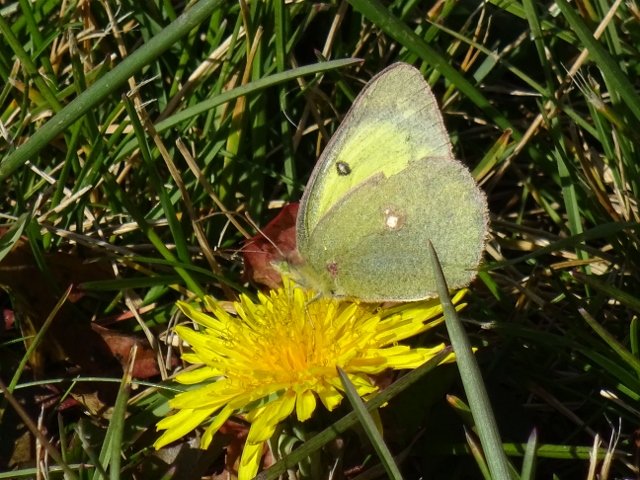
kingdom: Animalia
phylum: Arthropoda
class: Insecta
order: Lepidoptera
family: Pieridae
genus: Colias
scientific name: Colias philodice
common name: Clouded Sulphur
